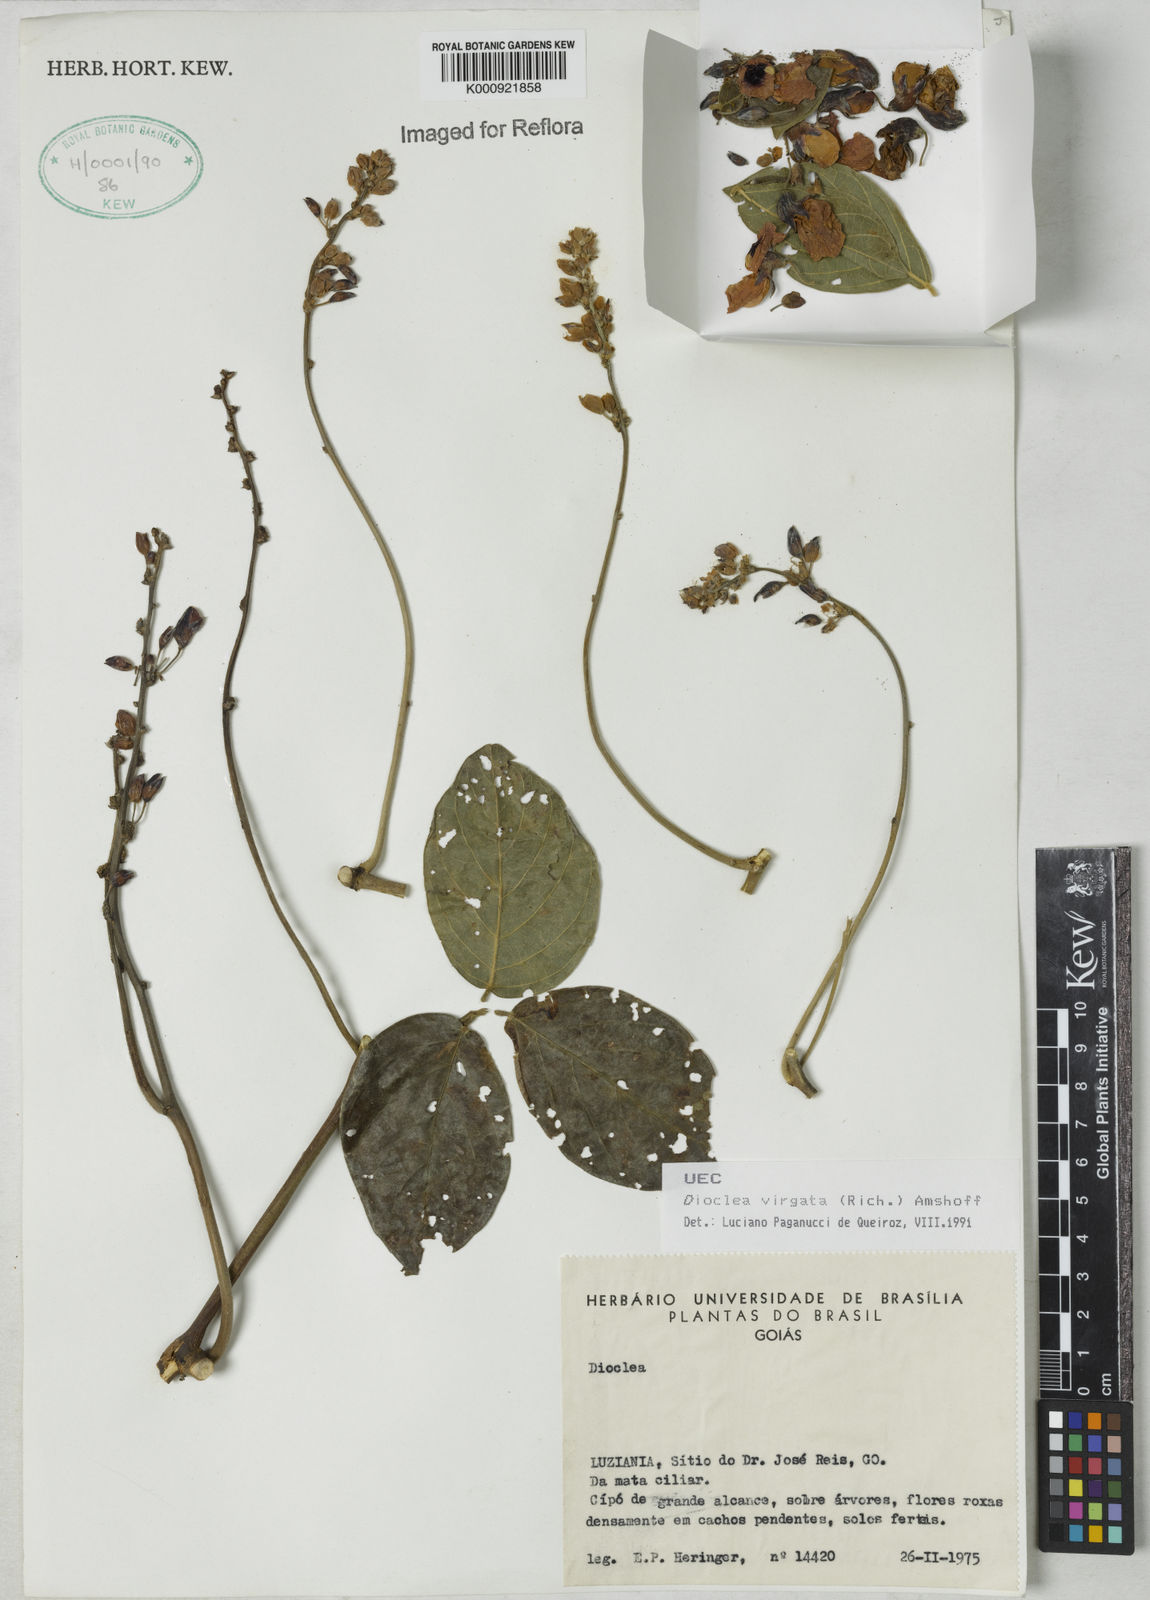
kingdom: Plantae
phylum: Tracheophyta
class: Magnoliopsida
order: Fabales
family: Fabaceae
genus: Dioclea
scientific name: Dioclea virgata
